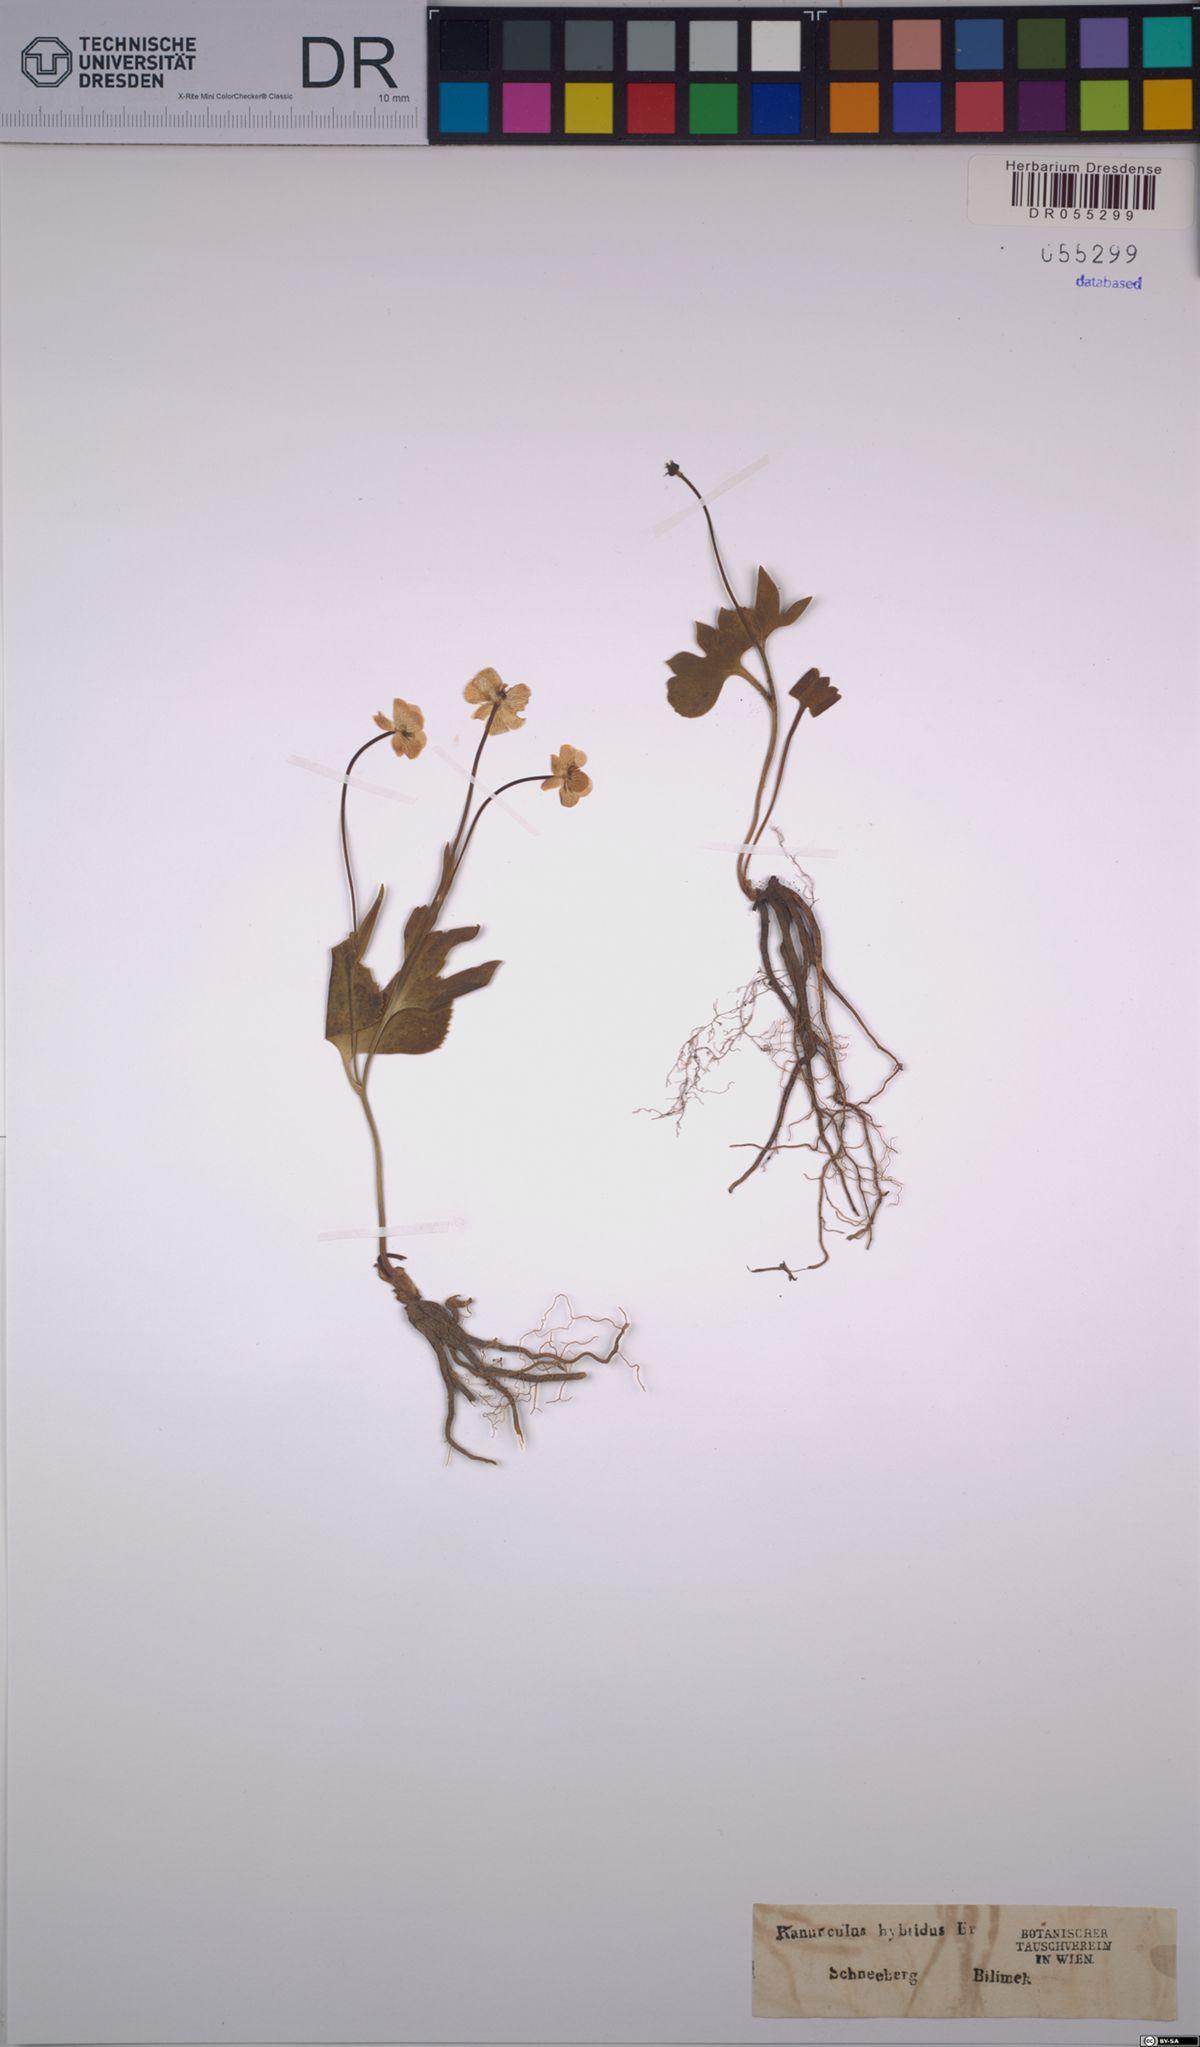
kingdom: Plantae
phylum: Tracheophyta
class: Magnoliopsida
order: Ranunculales
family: Ranunculaceae
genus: Ranunculus
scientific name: Ranunculus hybridus
